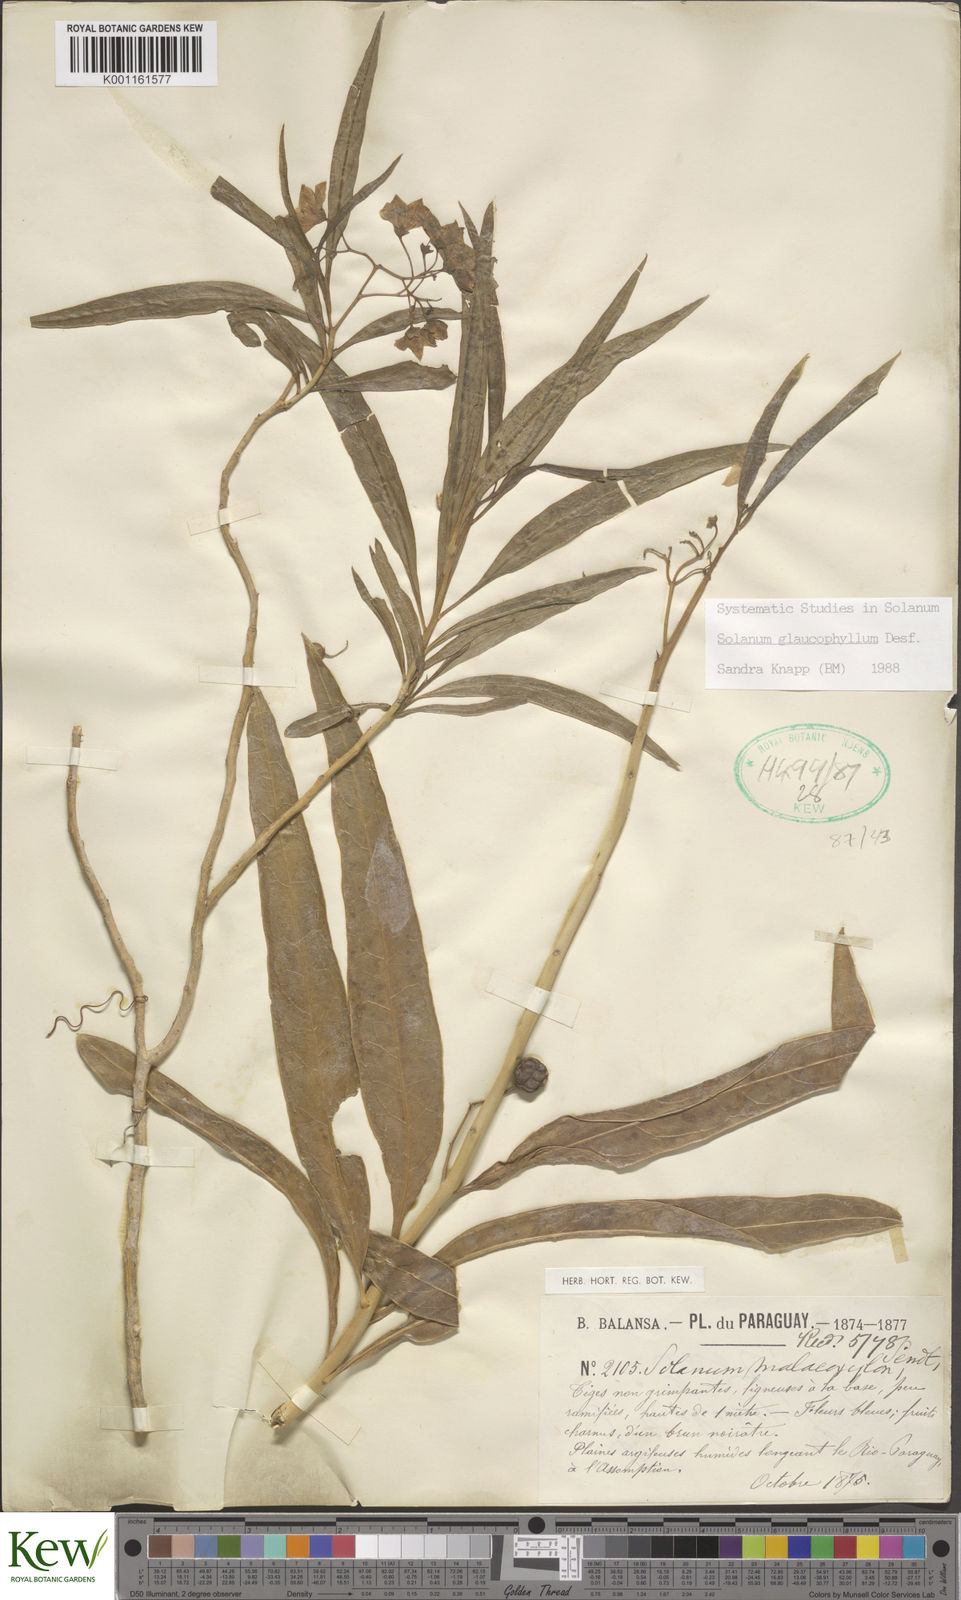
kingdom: Plantae
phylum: Tracheophyta
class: Magnoliopsida
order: Solanales
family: Solanaceae
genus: Solanum
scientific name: Solanum glaucophyllum
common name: Waxyleaf nightshade
